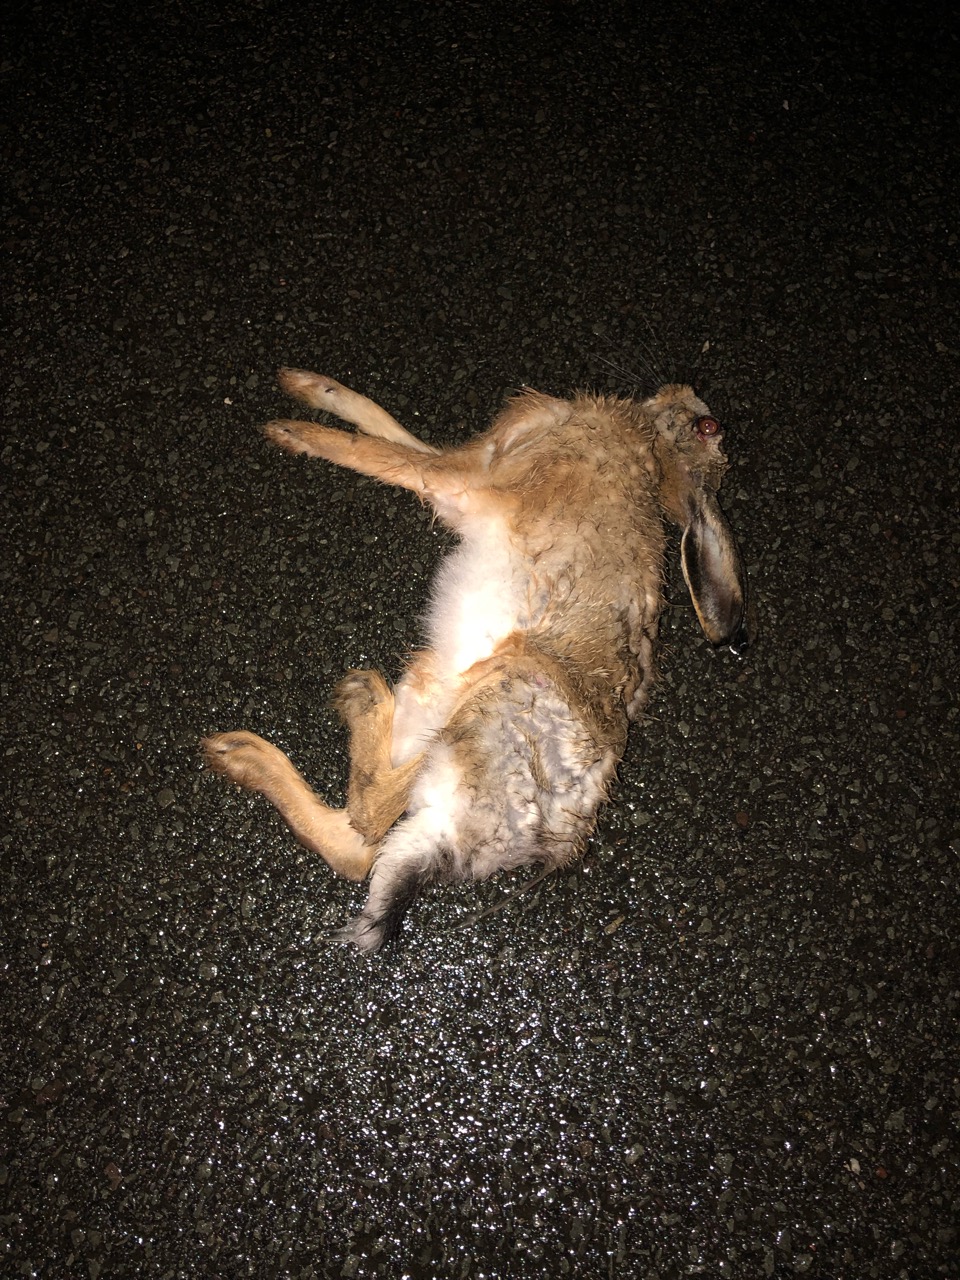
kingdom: Animalia
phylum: Chordata
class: Mammalia
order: Lagomorpha
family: Leporidae
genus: Lepus
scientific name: Lepus europaeus
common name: European hare
